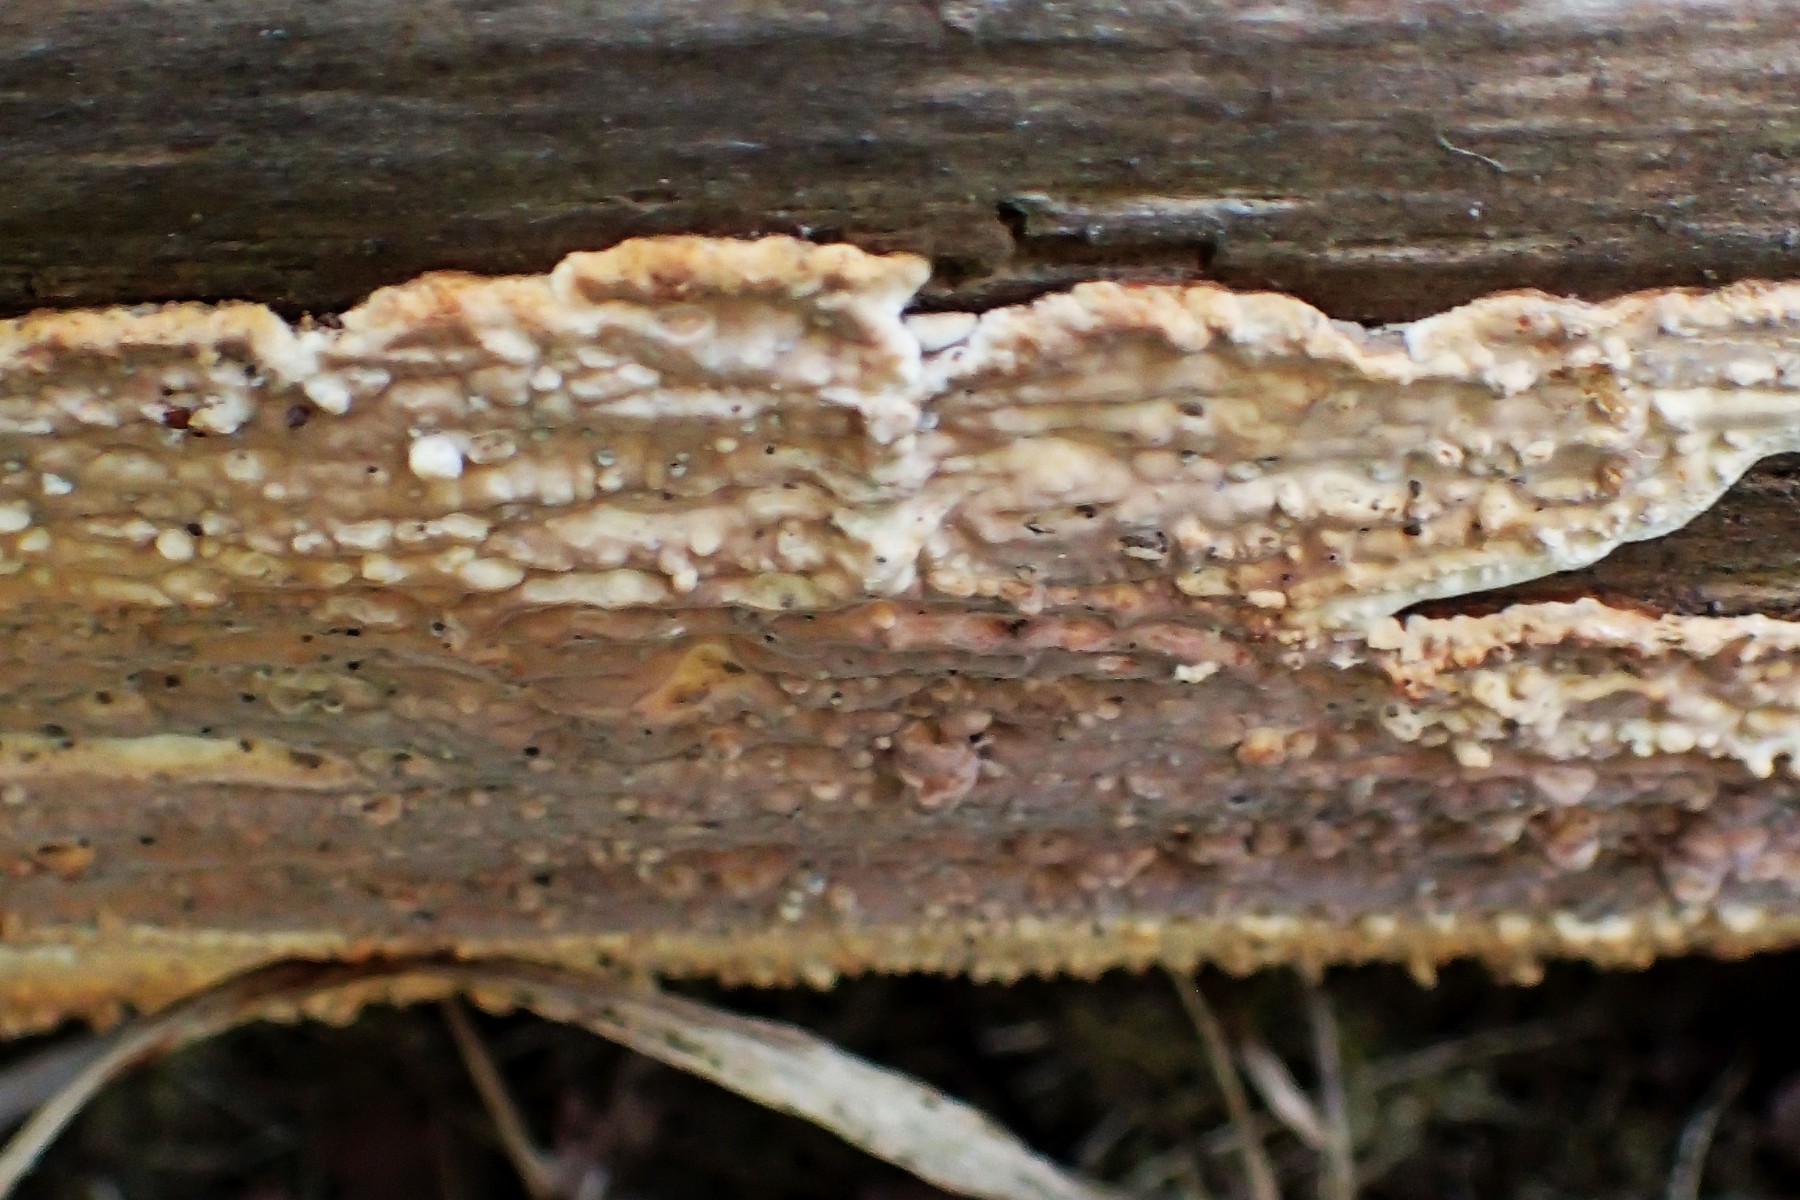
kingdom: Fungi
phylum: Basidiomycota
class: Agaricomycetes
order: Polyporales
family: Dacryobolaceae
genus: Dacryobolus
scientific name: Dacryobolus karstenii
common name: glat vulkanskorpe
